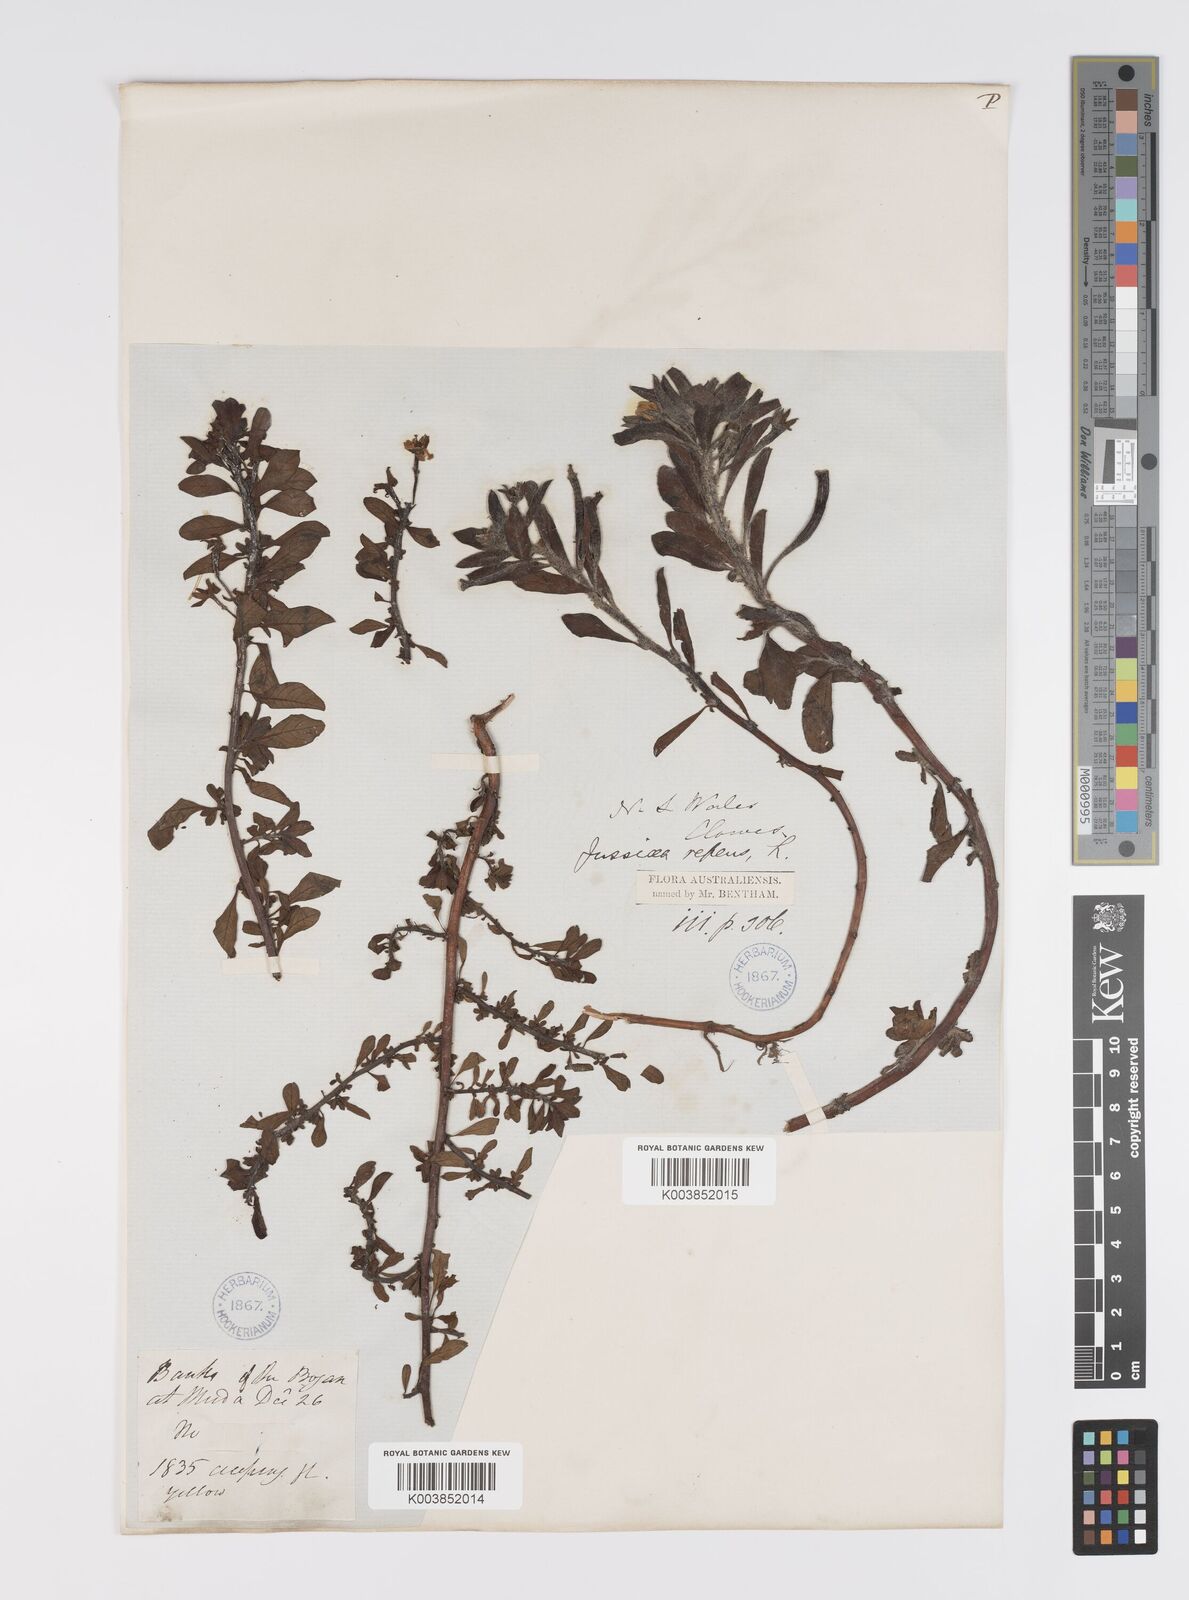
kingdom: Plantae
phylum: Tracheophyta
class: Magnoliopsida
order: Myrtales
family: Onagraceae
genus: Ludwigia
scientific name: Ludwigia peploides
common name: Floating primrose-willow
